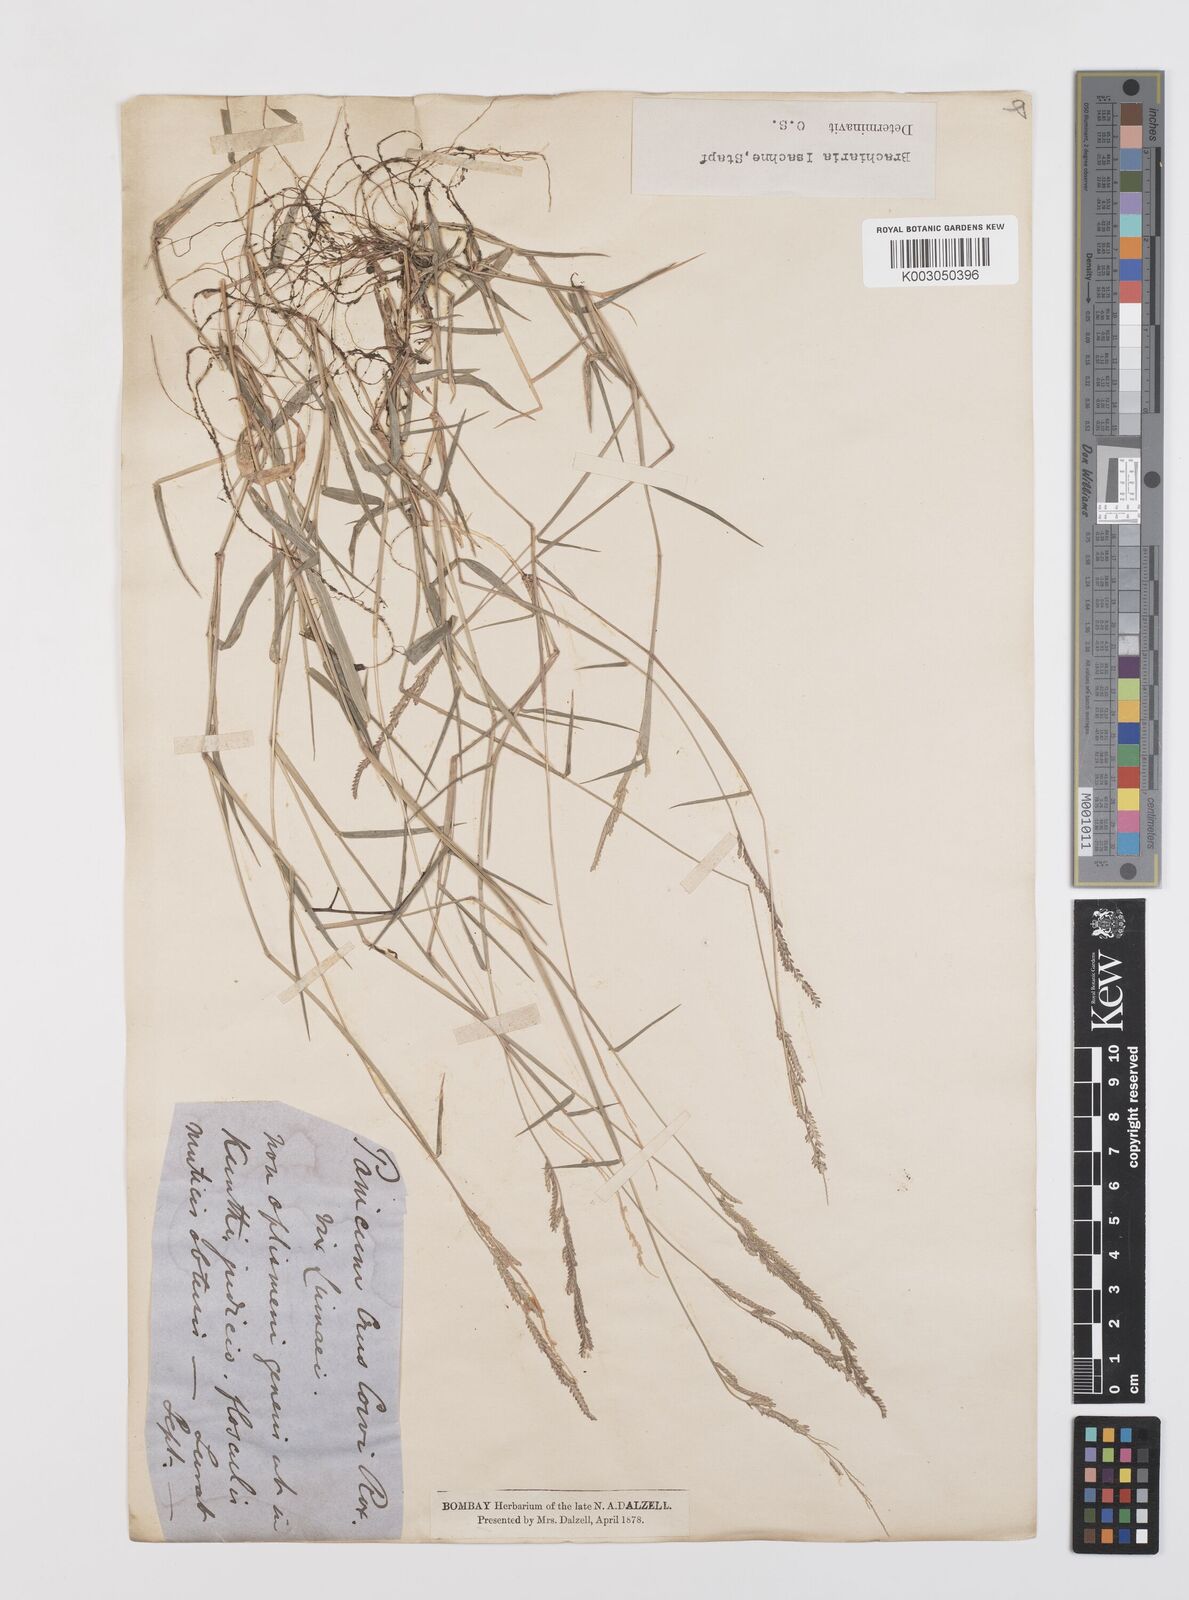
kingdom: Plantae
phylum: Tracheophyta
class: Liliopsida
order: Poales
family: Poaceae
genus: Moorochloa
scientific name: Moorochloa eruciformis
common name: Sweet signalgrass
